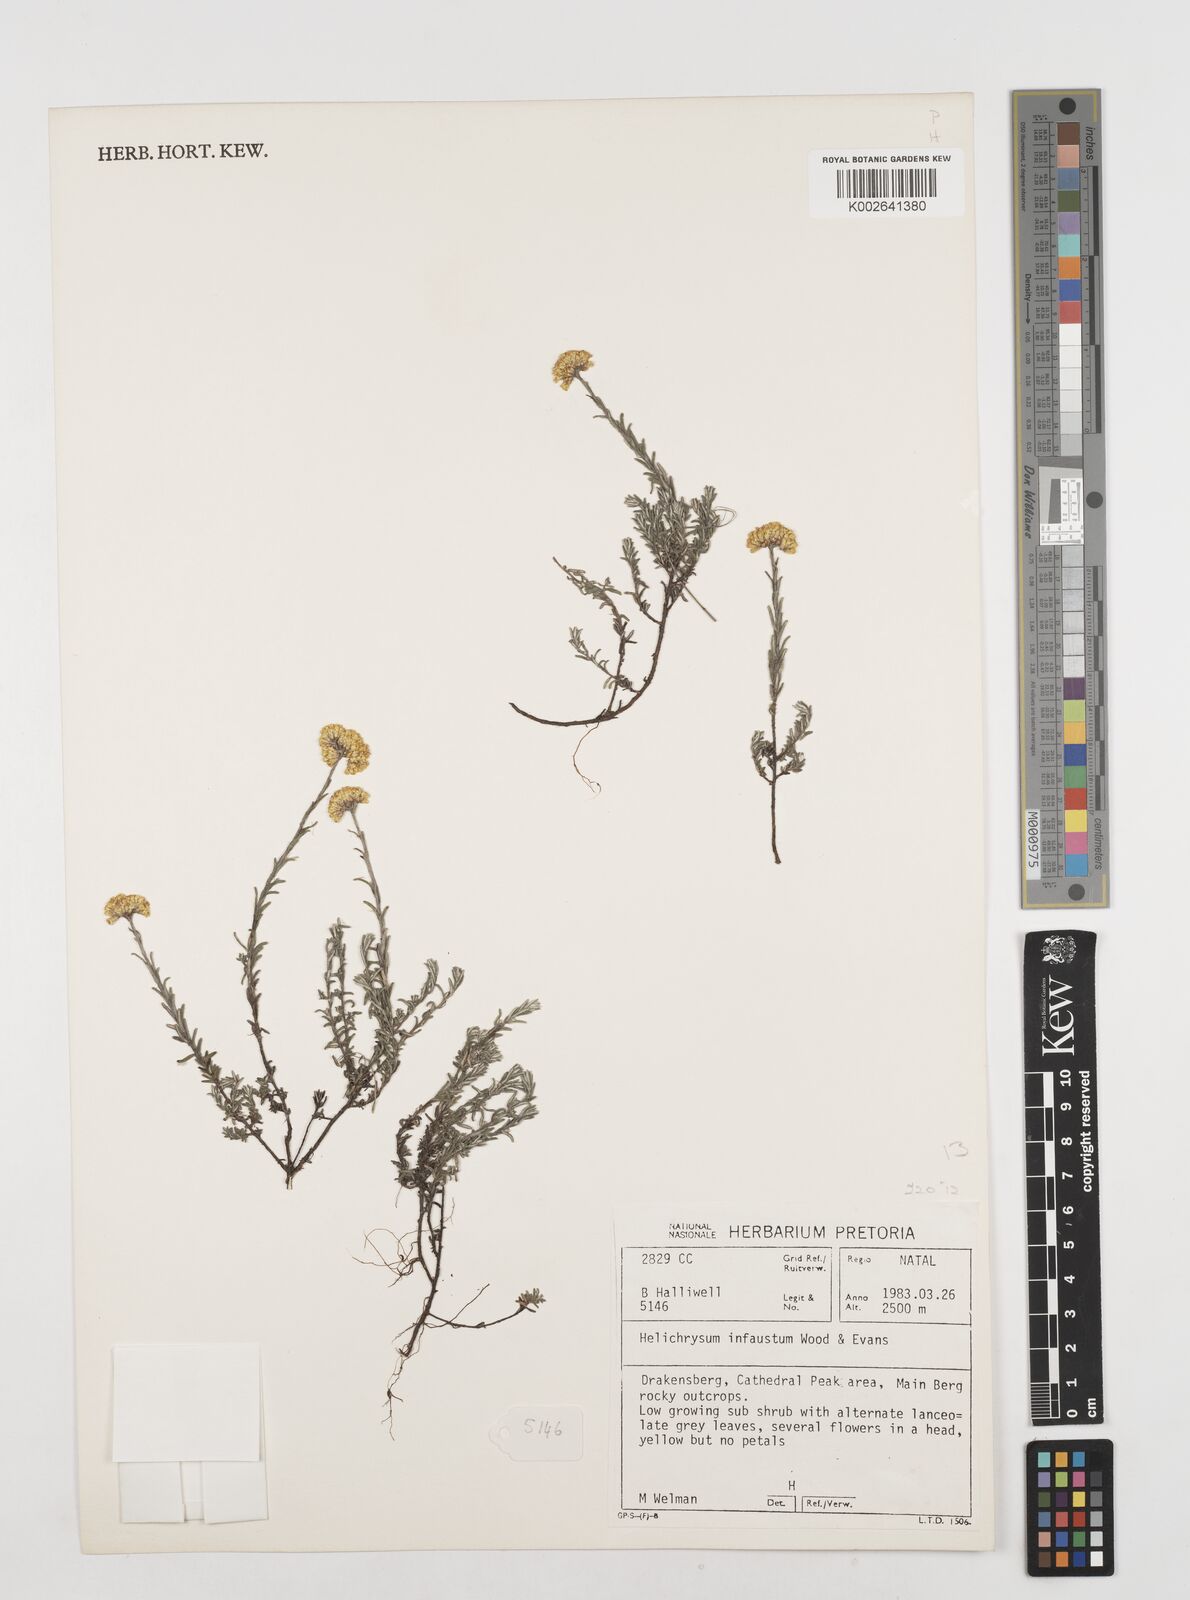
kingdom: Plantae
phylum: Tracheophyta
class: Magnoliopsida
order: Asterales
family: Asteraceae
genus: Calomeria
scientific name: Calomeria infausta
